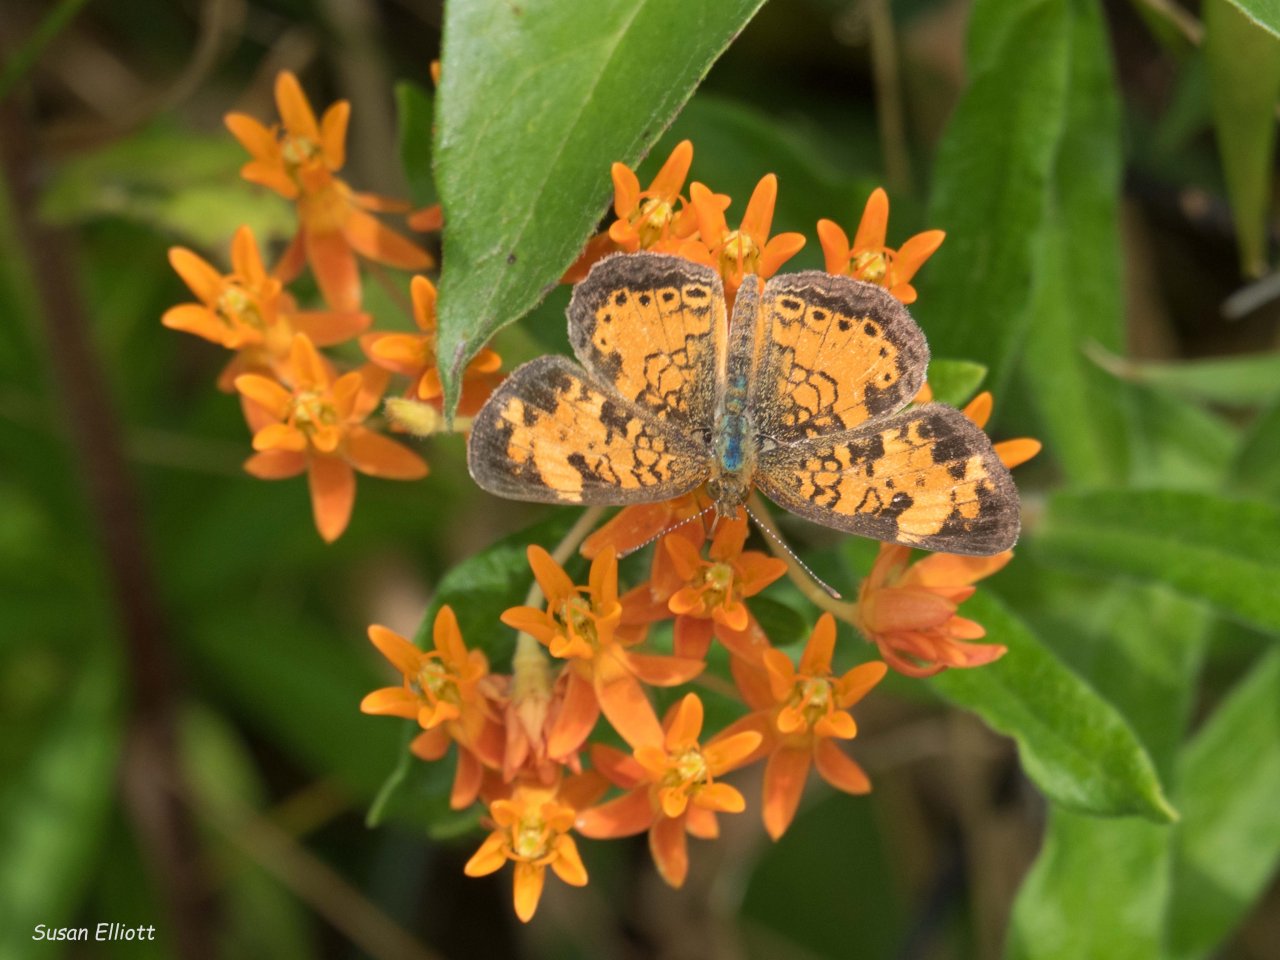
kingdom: Animalia
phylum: Arthropoda
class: Insecta
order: Lepidoptera
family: Nymphalidae
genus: Phyciodes
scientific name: Phyciodes
